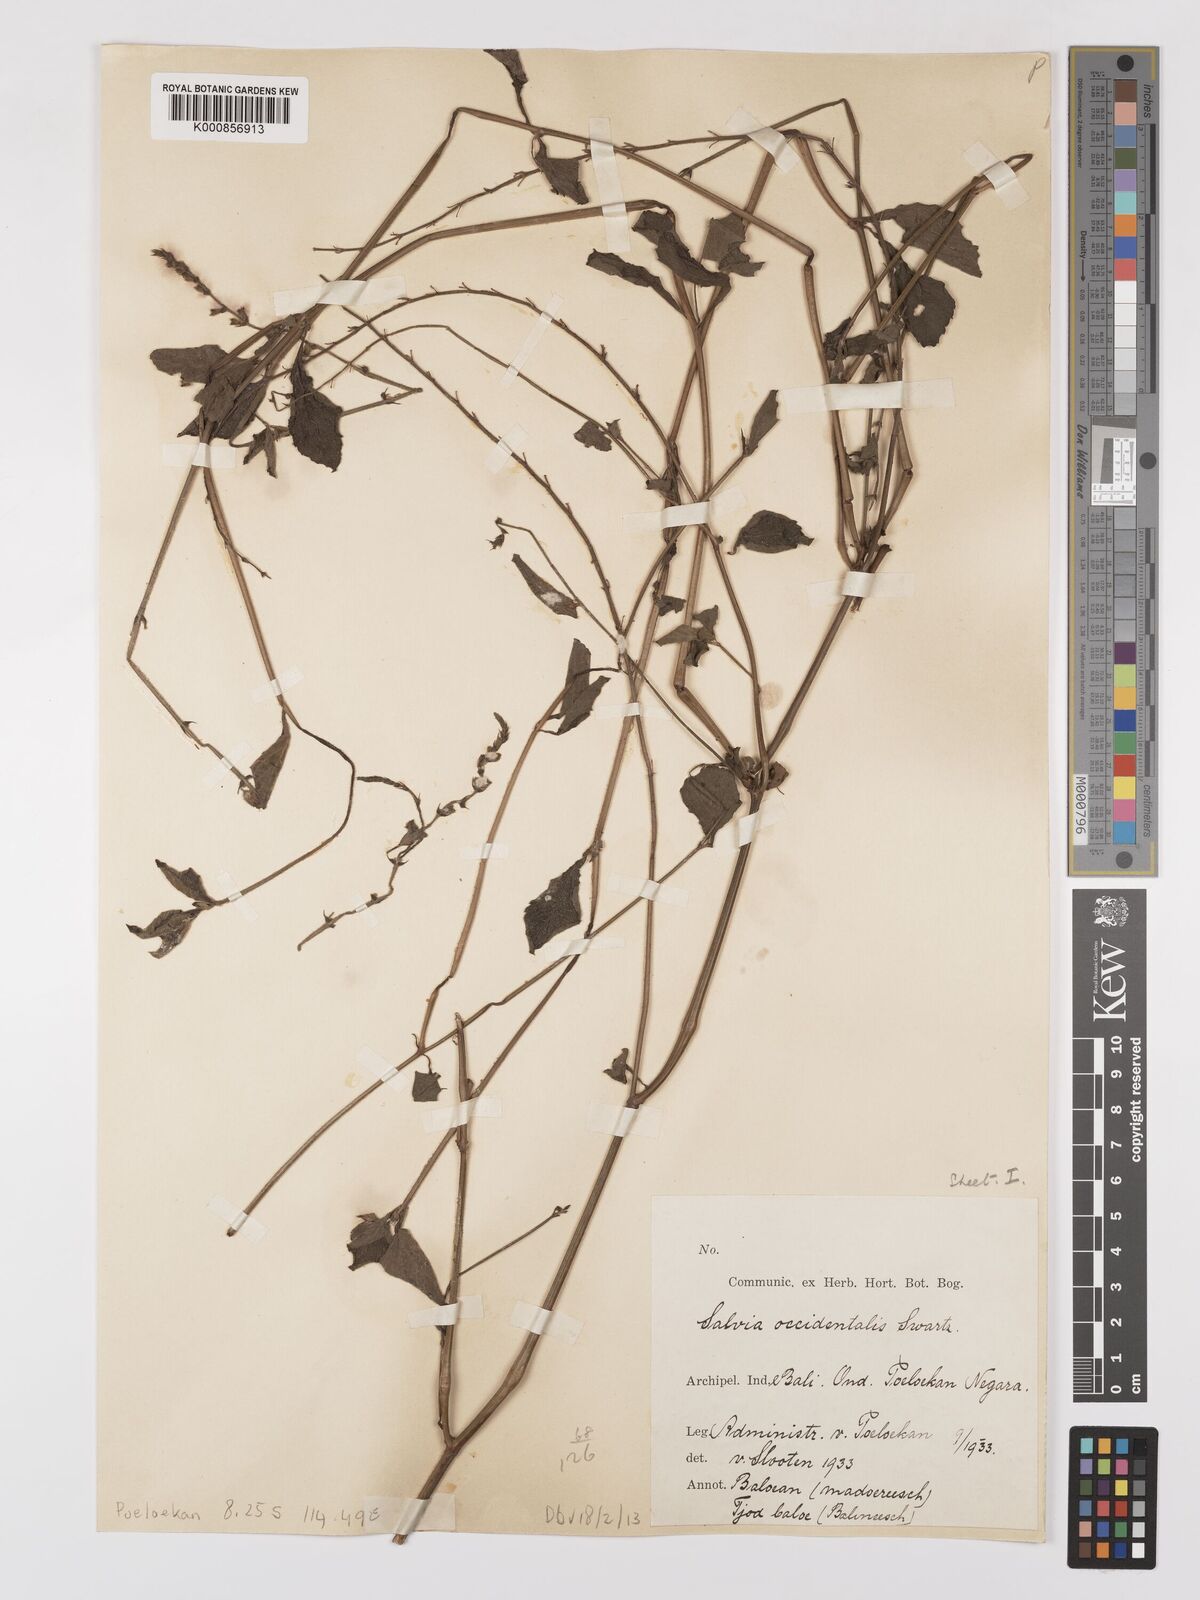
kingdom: Plantae
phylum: Tracheophyta
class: Magnoliopsida
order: Lamiales
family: Lamiaceae
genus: Salvia
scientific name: Salvia
